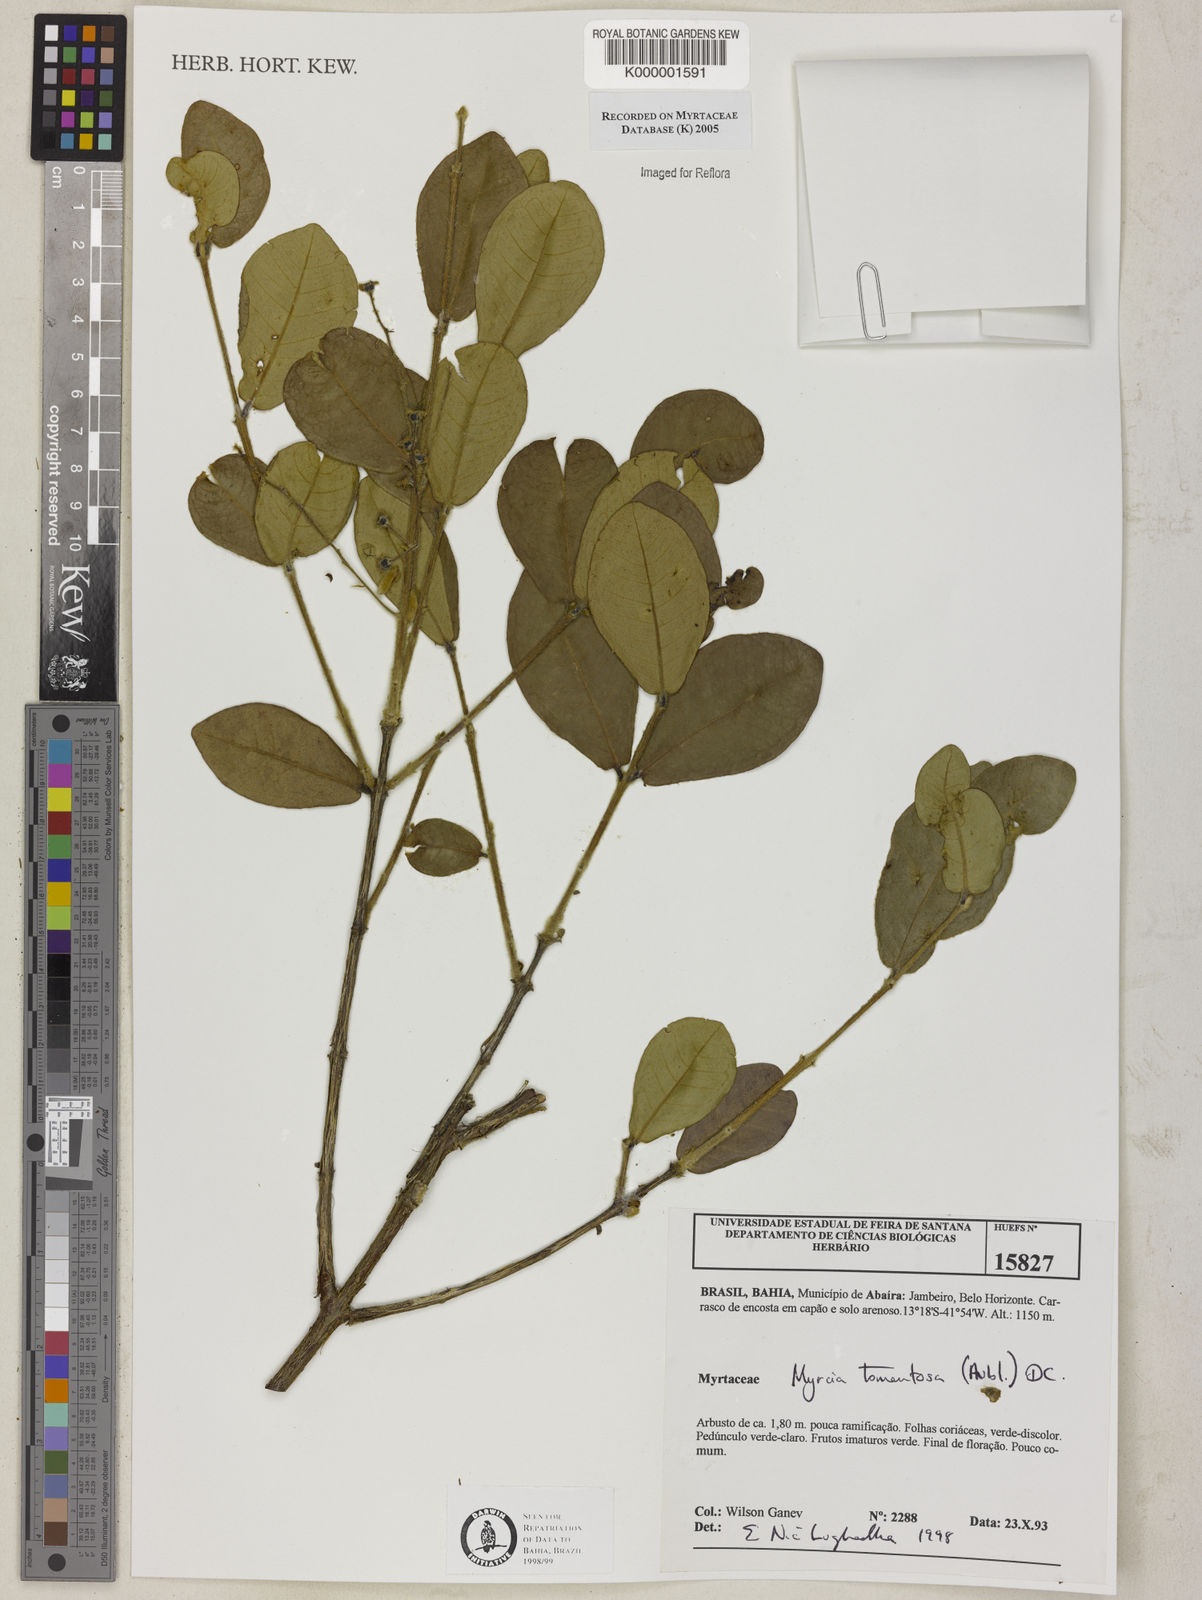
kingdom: Plantae
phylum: Tracheophyta
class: Magnoliopsida
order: Myrtales
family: Myrtaceae
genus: Myrcia
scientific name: Myrcia tomentosa
